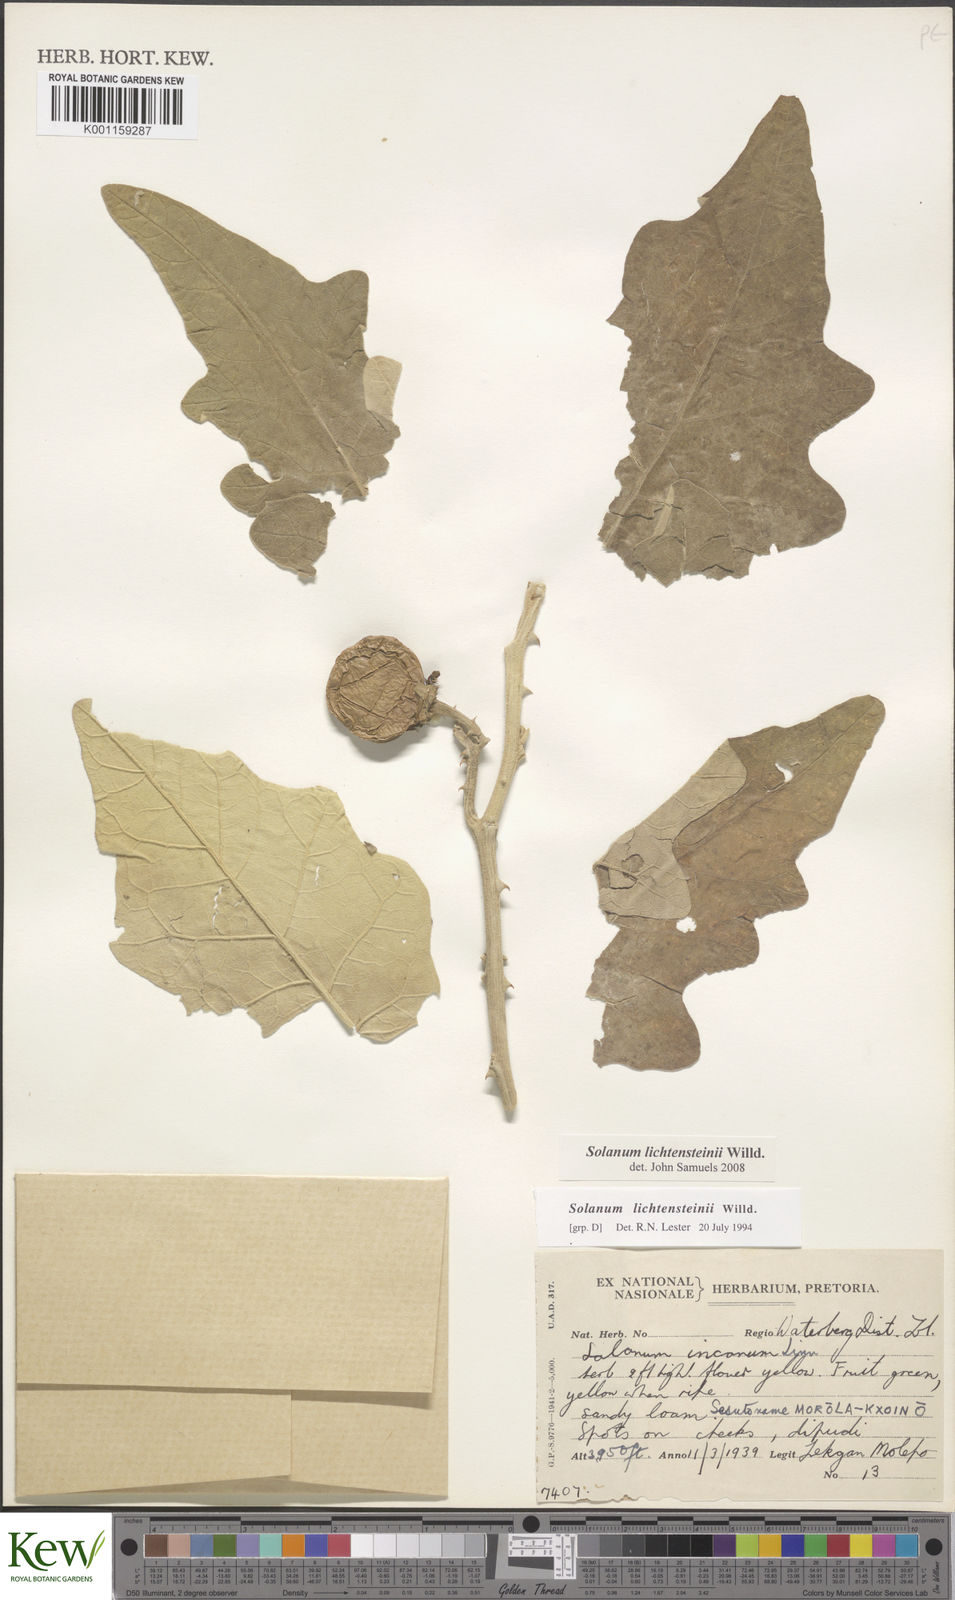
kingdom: Plantae
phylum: Tracheophyta
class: Magnoliopsida
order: Solanales
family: Solanaceae
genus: Solanum
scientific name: Solanum lichtensteinii
